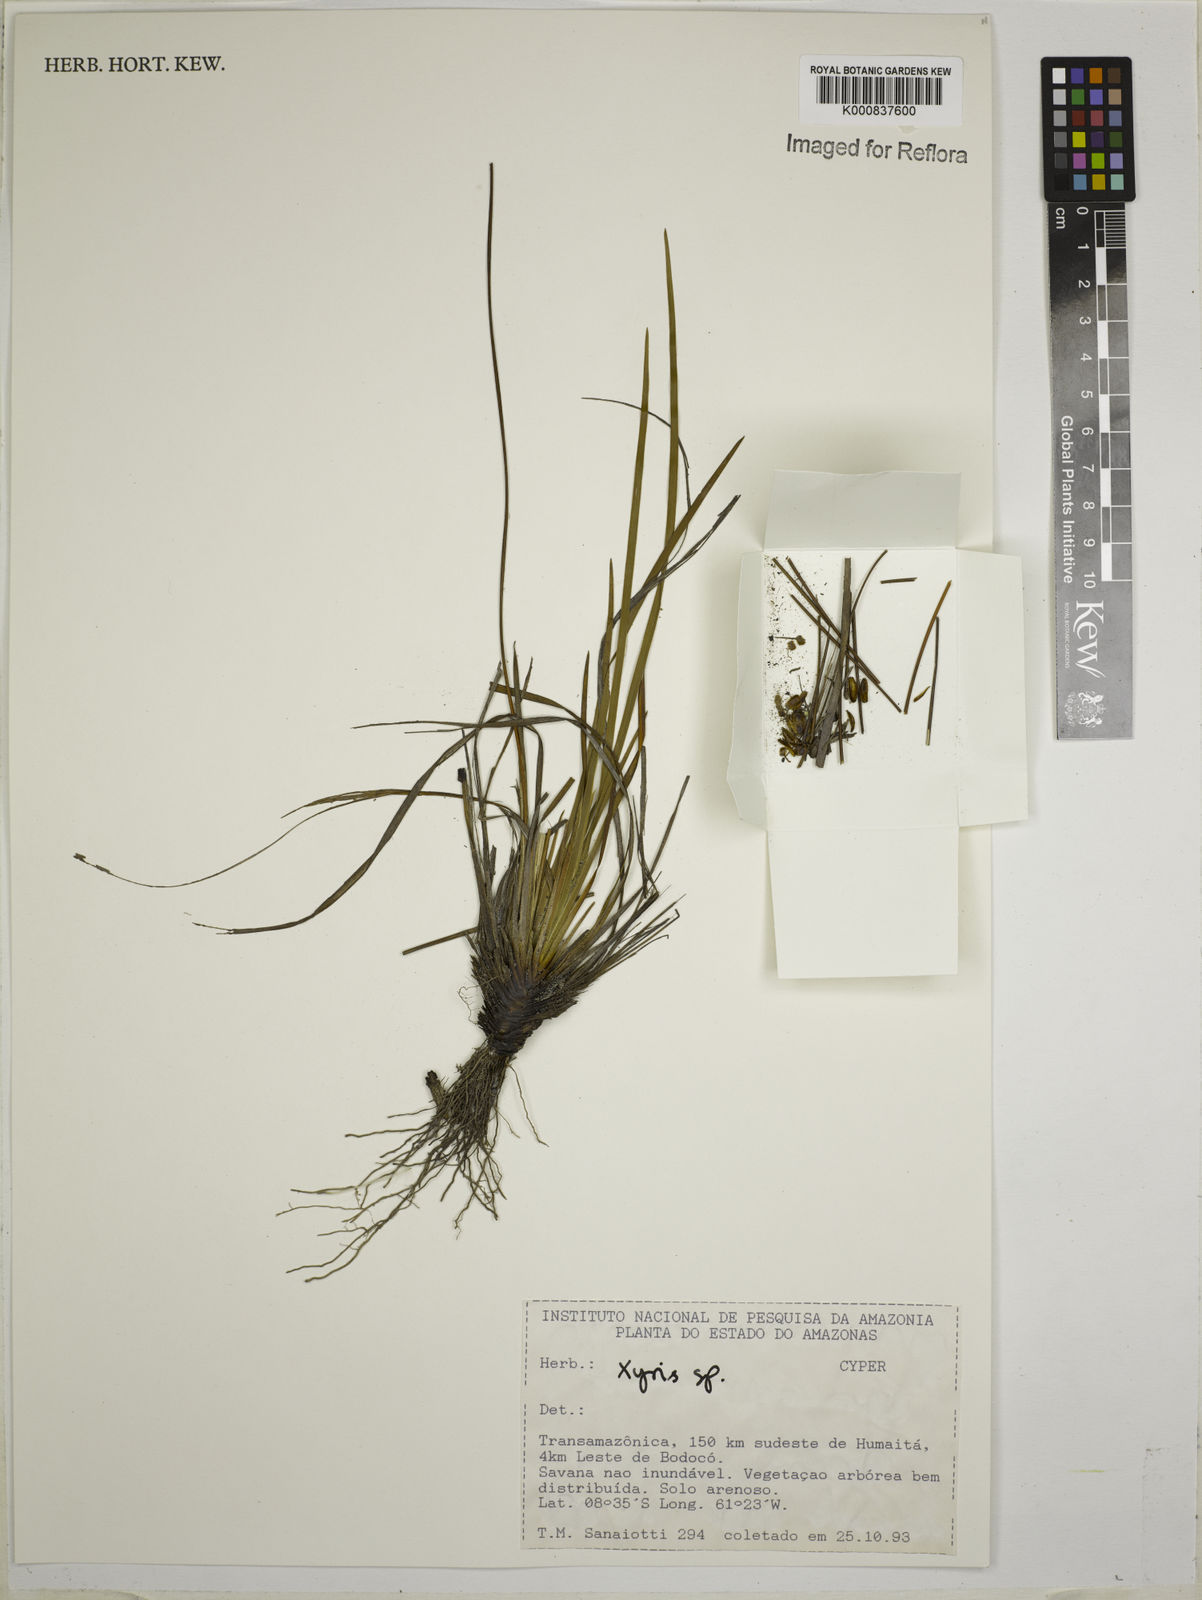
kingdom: Plantae
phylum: Tracheophyta
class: Liliopsida
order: Poales
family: Xyridaceae
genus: Xyris
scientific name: Xyris
